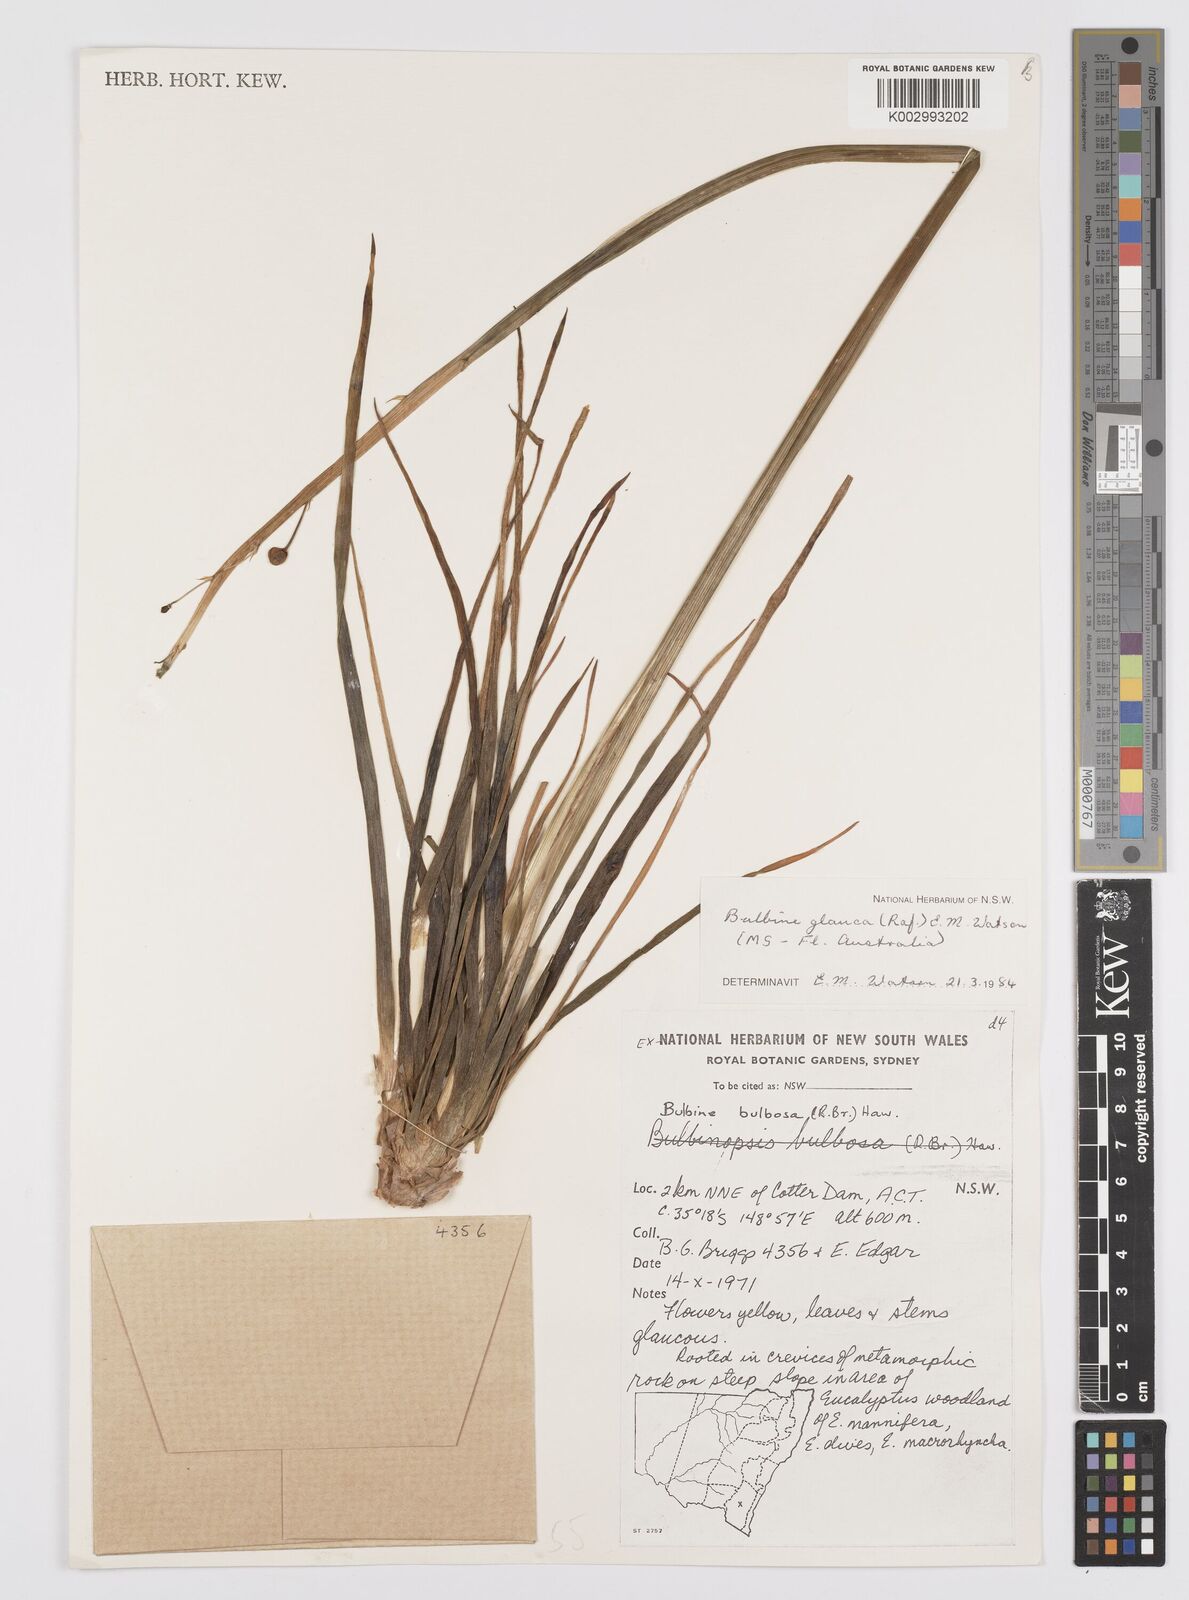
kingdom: Plantae
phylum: Tracheophyta
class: Liliopsida
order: Asparagales
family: Asphodelaceae
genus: Bulbine
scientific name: Bulbine glauca
